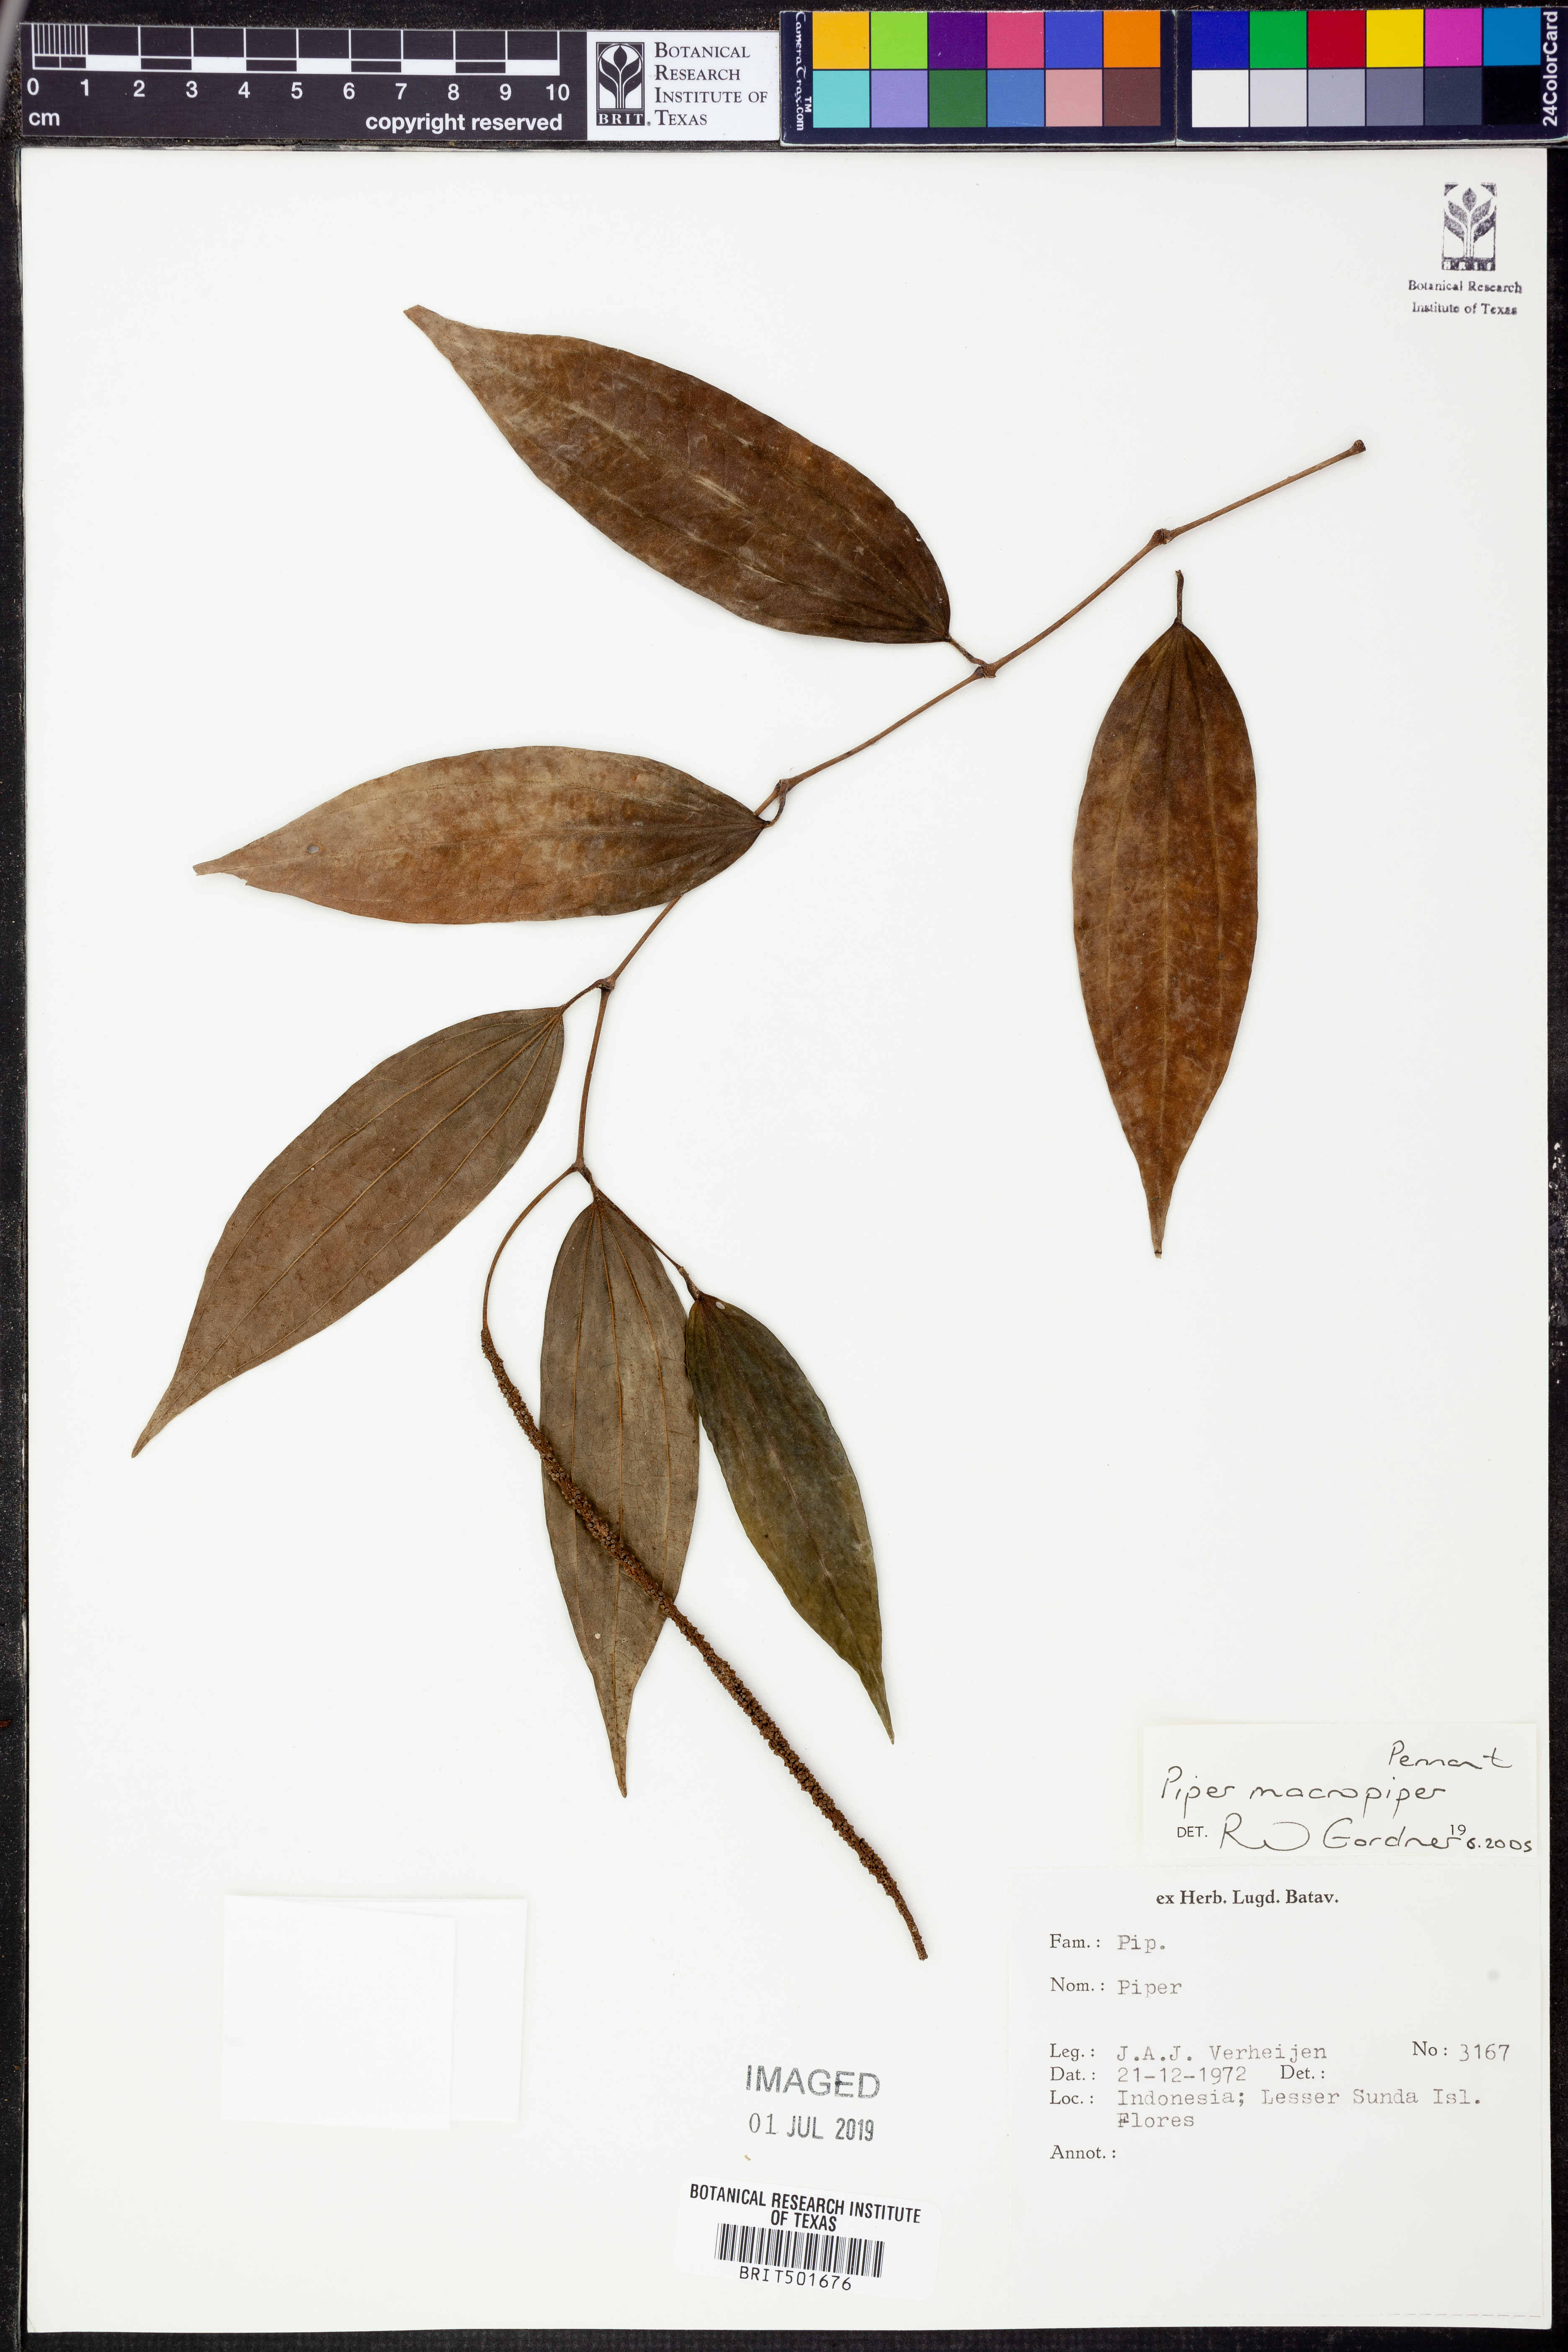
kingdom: Plantae
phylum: Tracheophyta
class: Magnoliopsida
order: Piperales
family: Piperaceae
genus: Piper
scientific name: Piper macropiper
